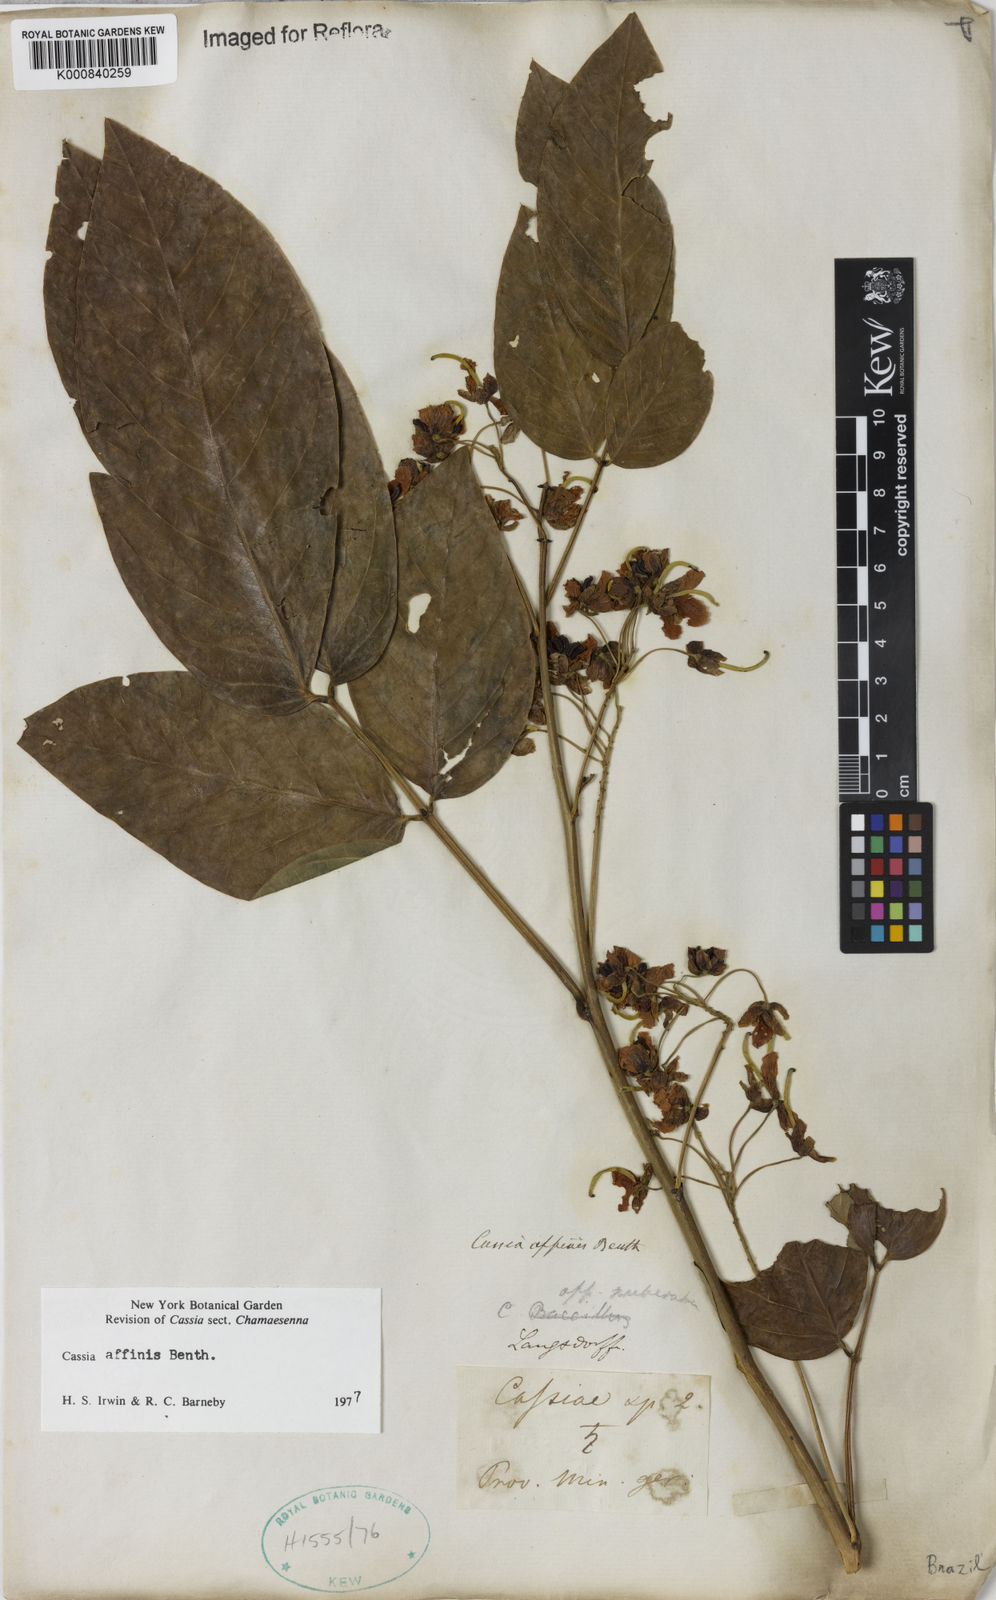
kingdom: Plantae
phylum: Tracheophyta
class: Magnoliopsida
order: Fabales
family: Fabaceae
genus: Senna
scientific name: Senna affinis
